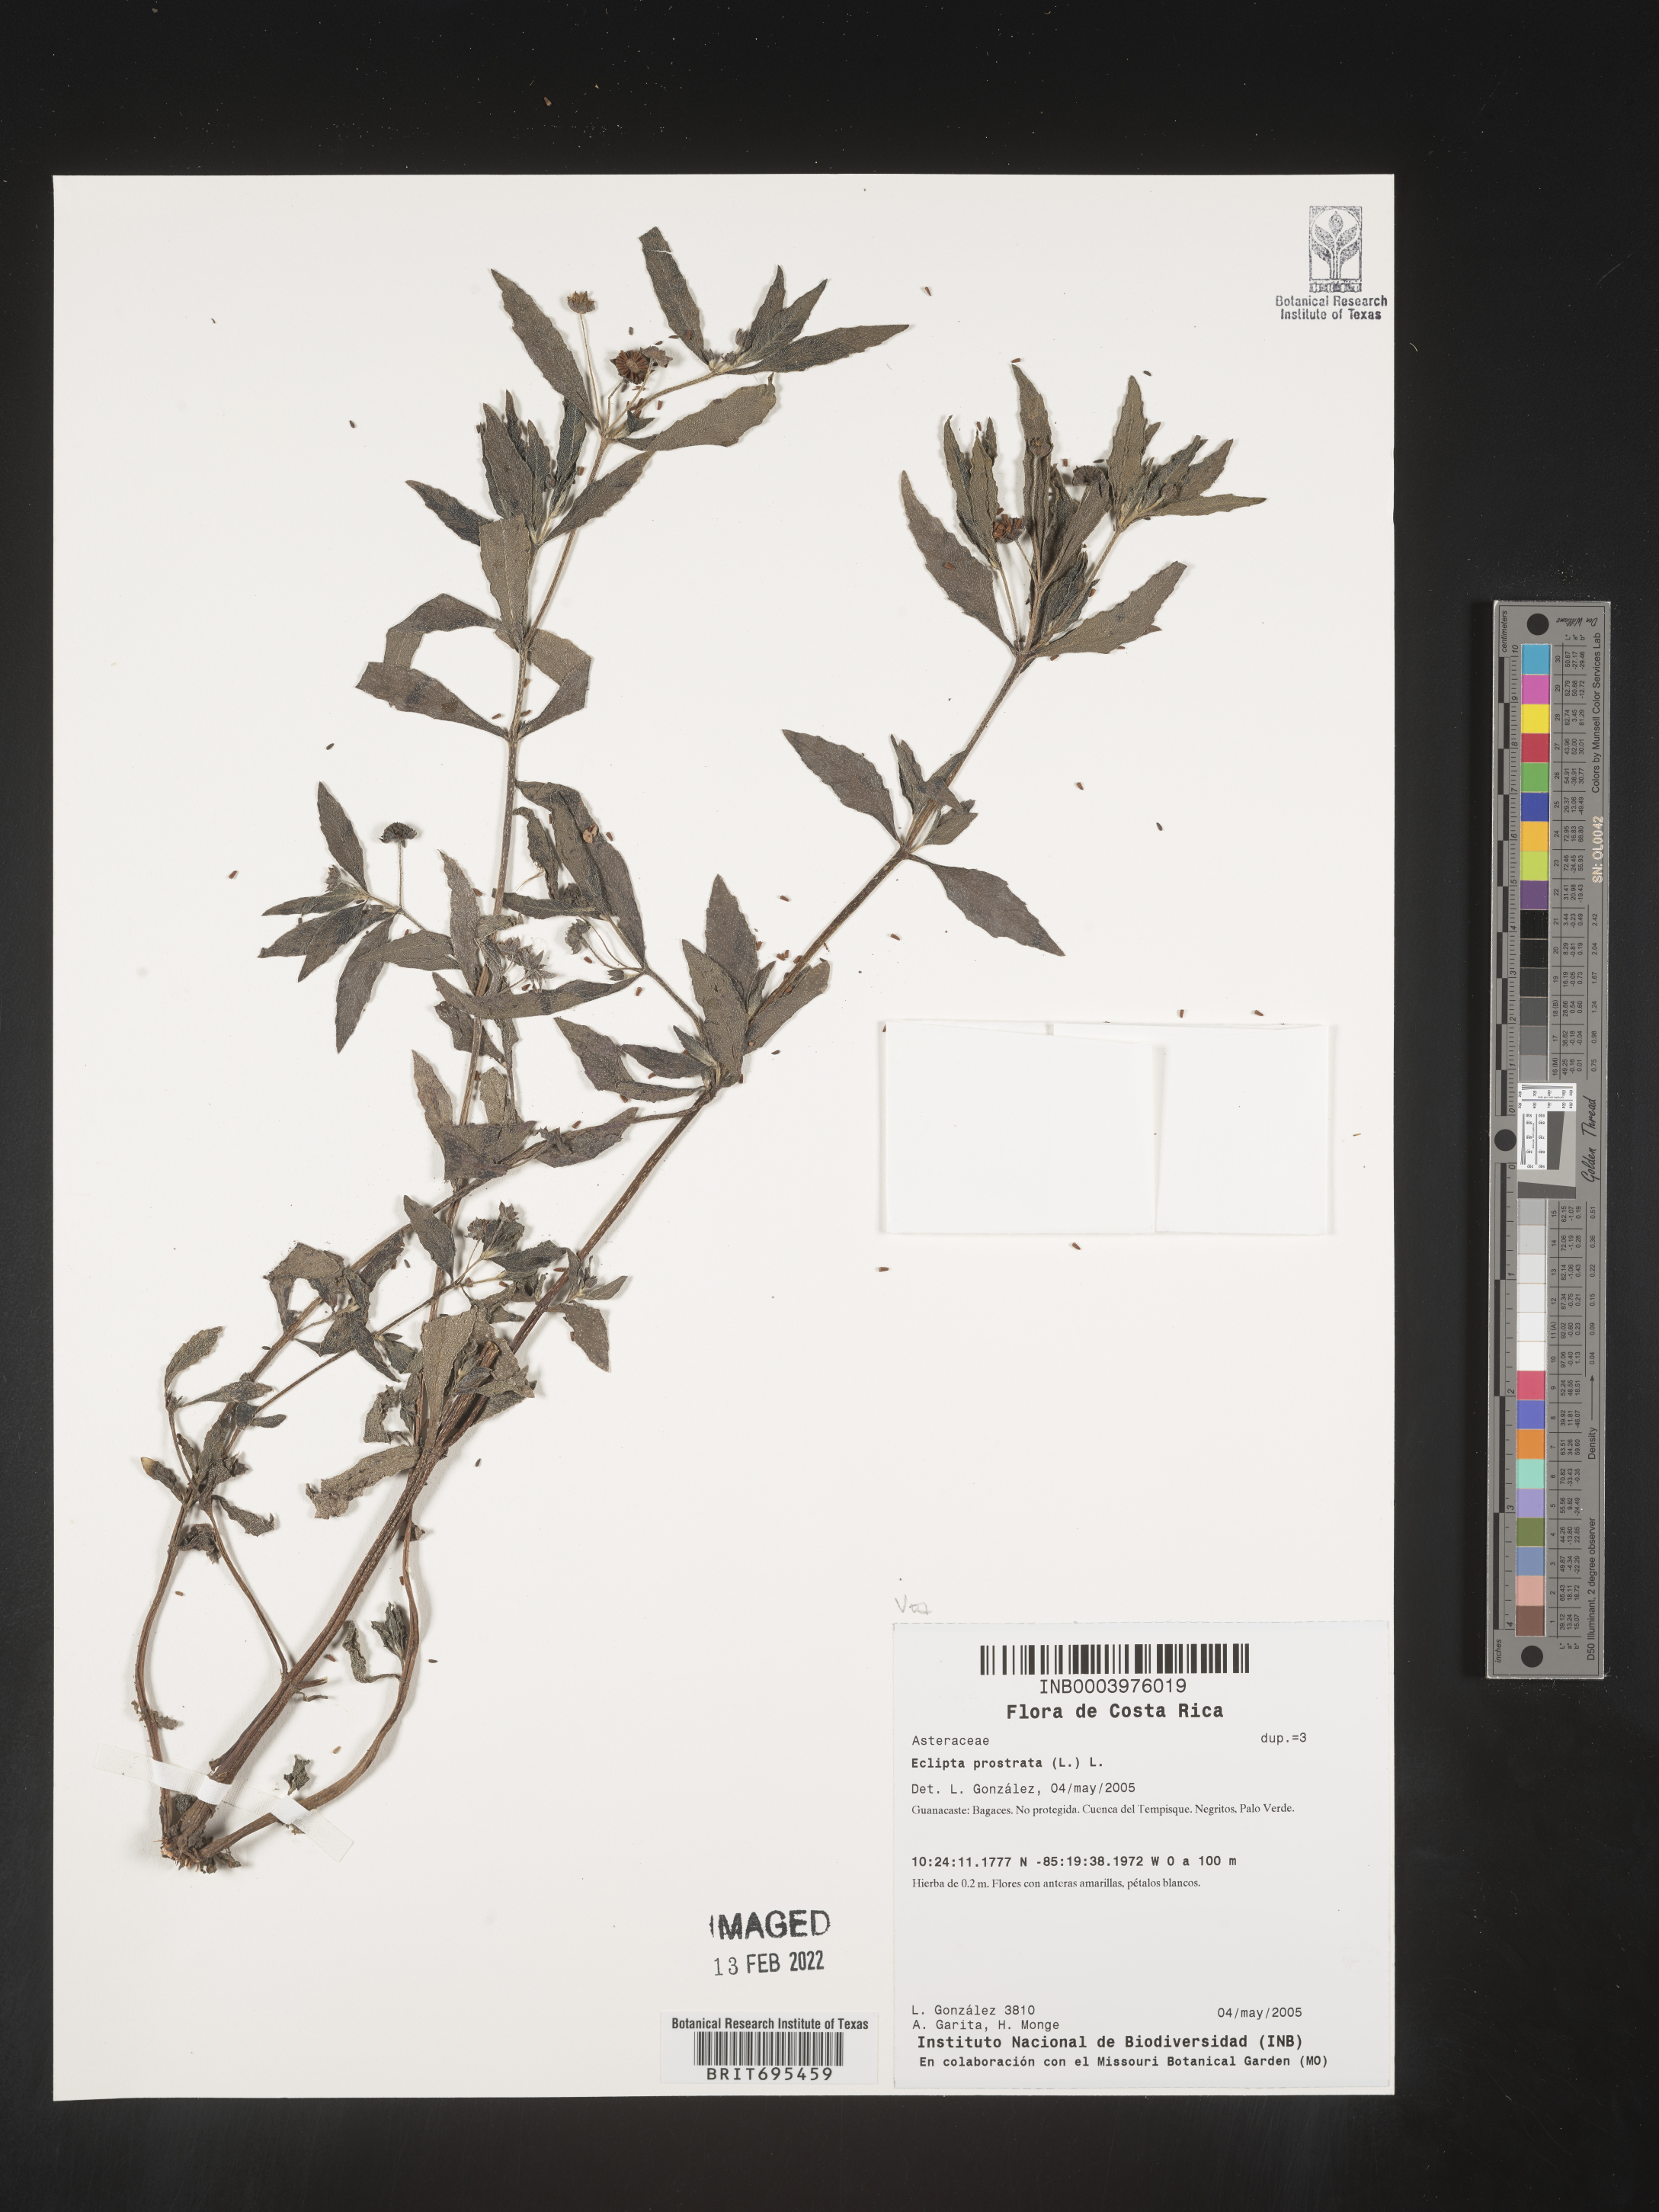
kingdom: Plantae
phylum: Tracheophyta
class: Magnoliopsida
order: Asterales
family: Asteraceae
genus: Eclipta
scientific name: Eclipta
